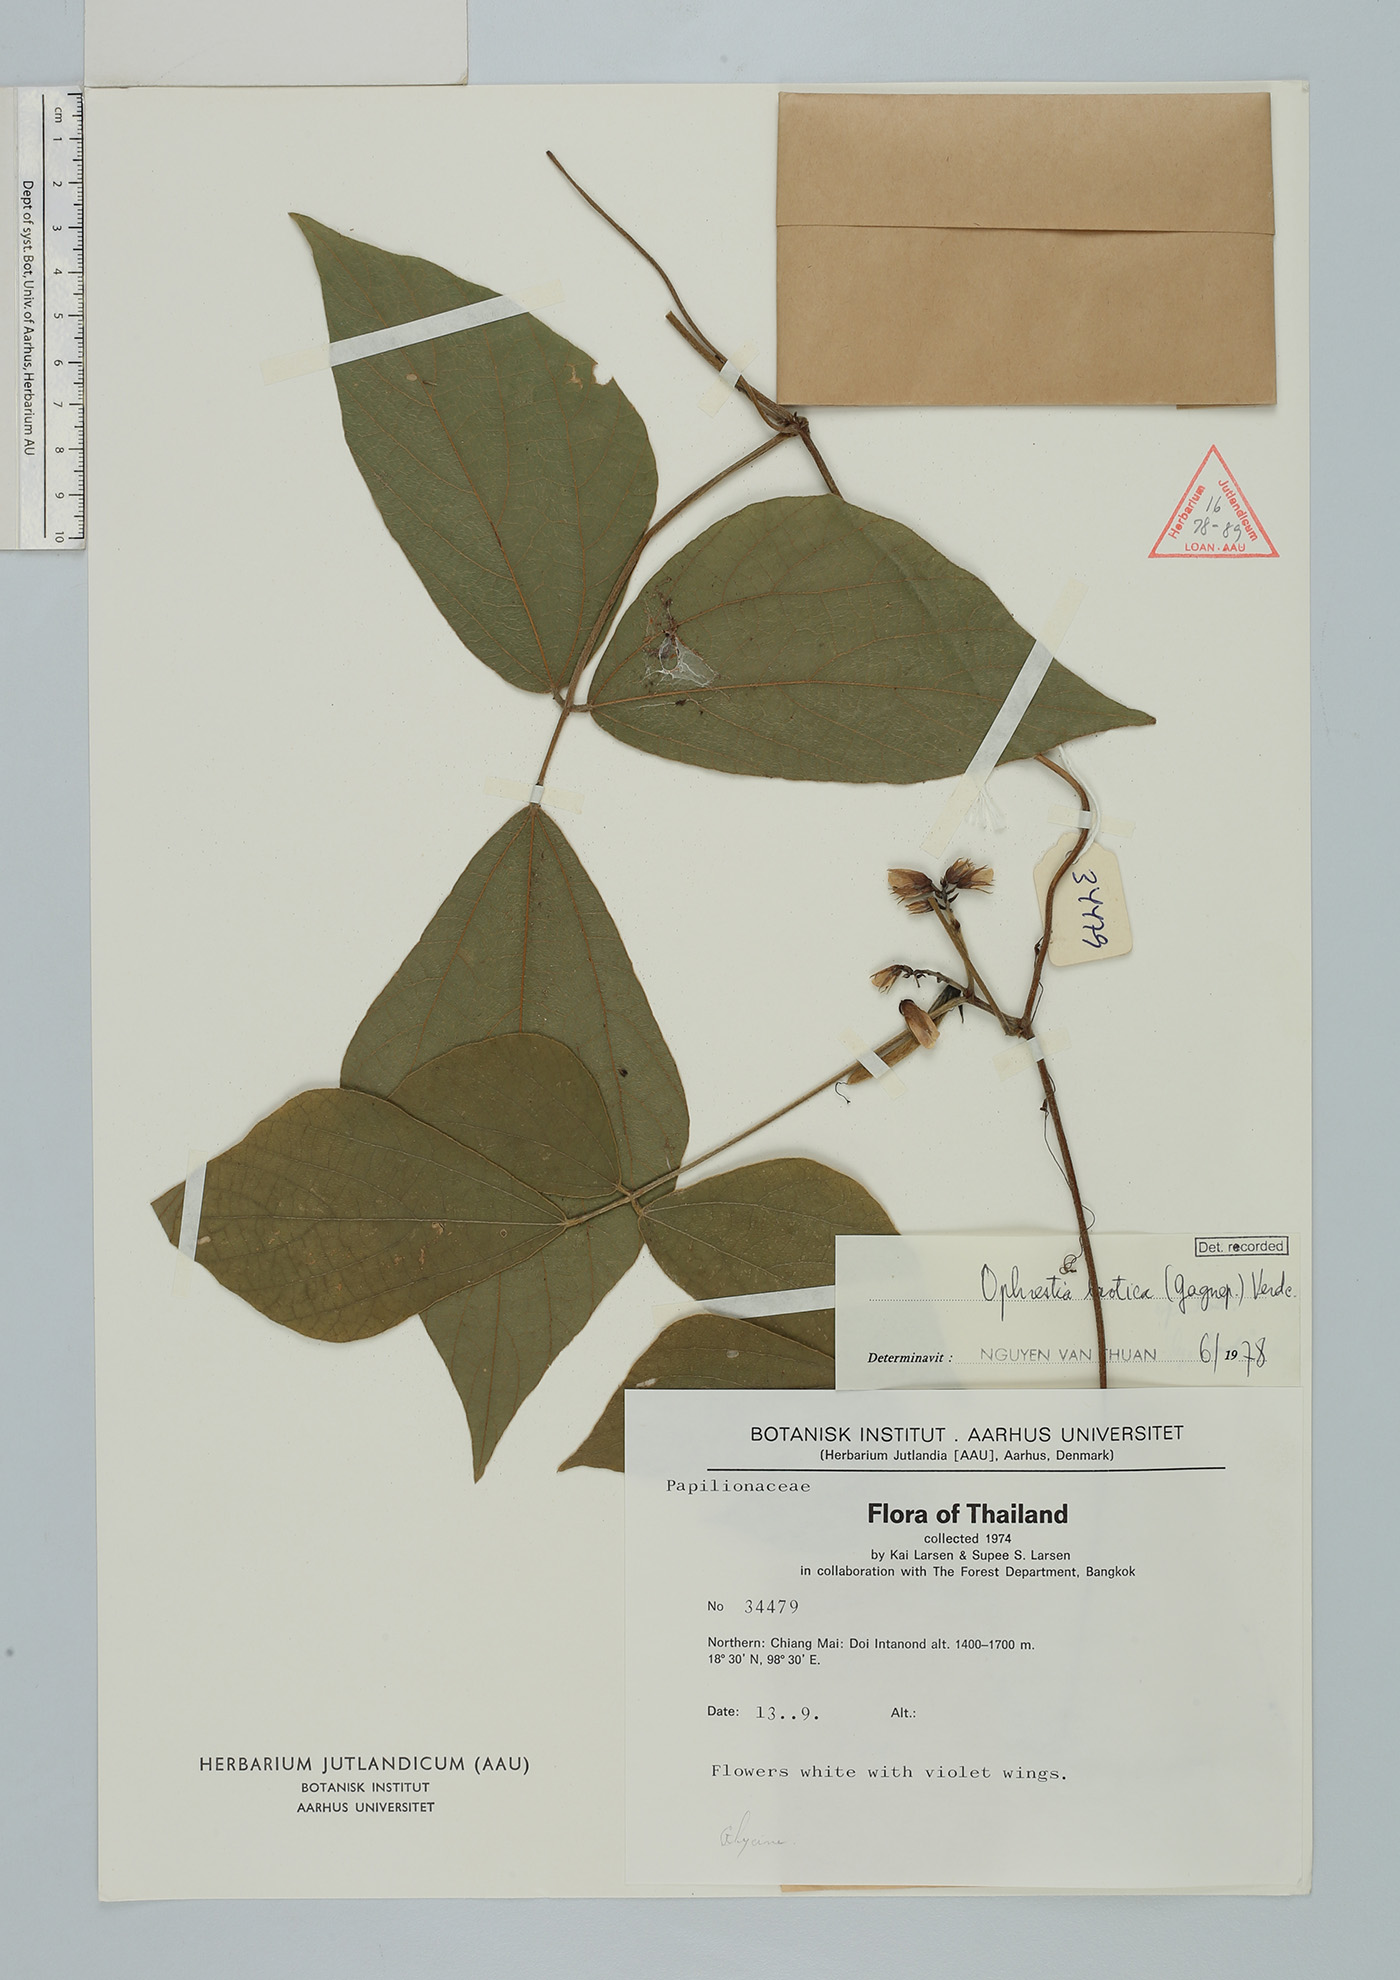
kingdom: Plantae
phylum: Tracheophyta
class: Magnoliopsida
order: Fabales
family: Fabaceae
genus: Sinodolichos
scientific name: Sinodolichos lagopus
